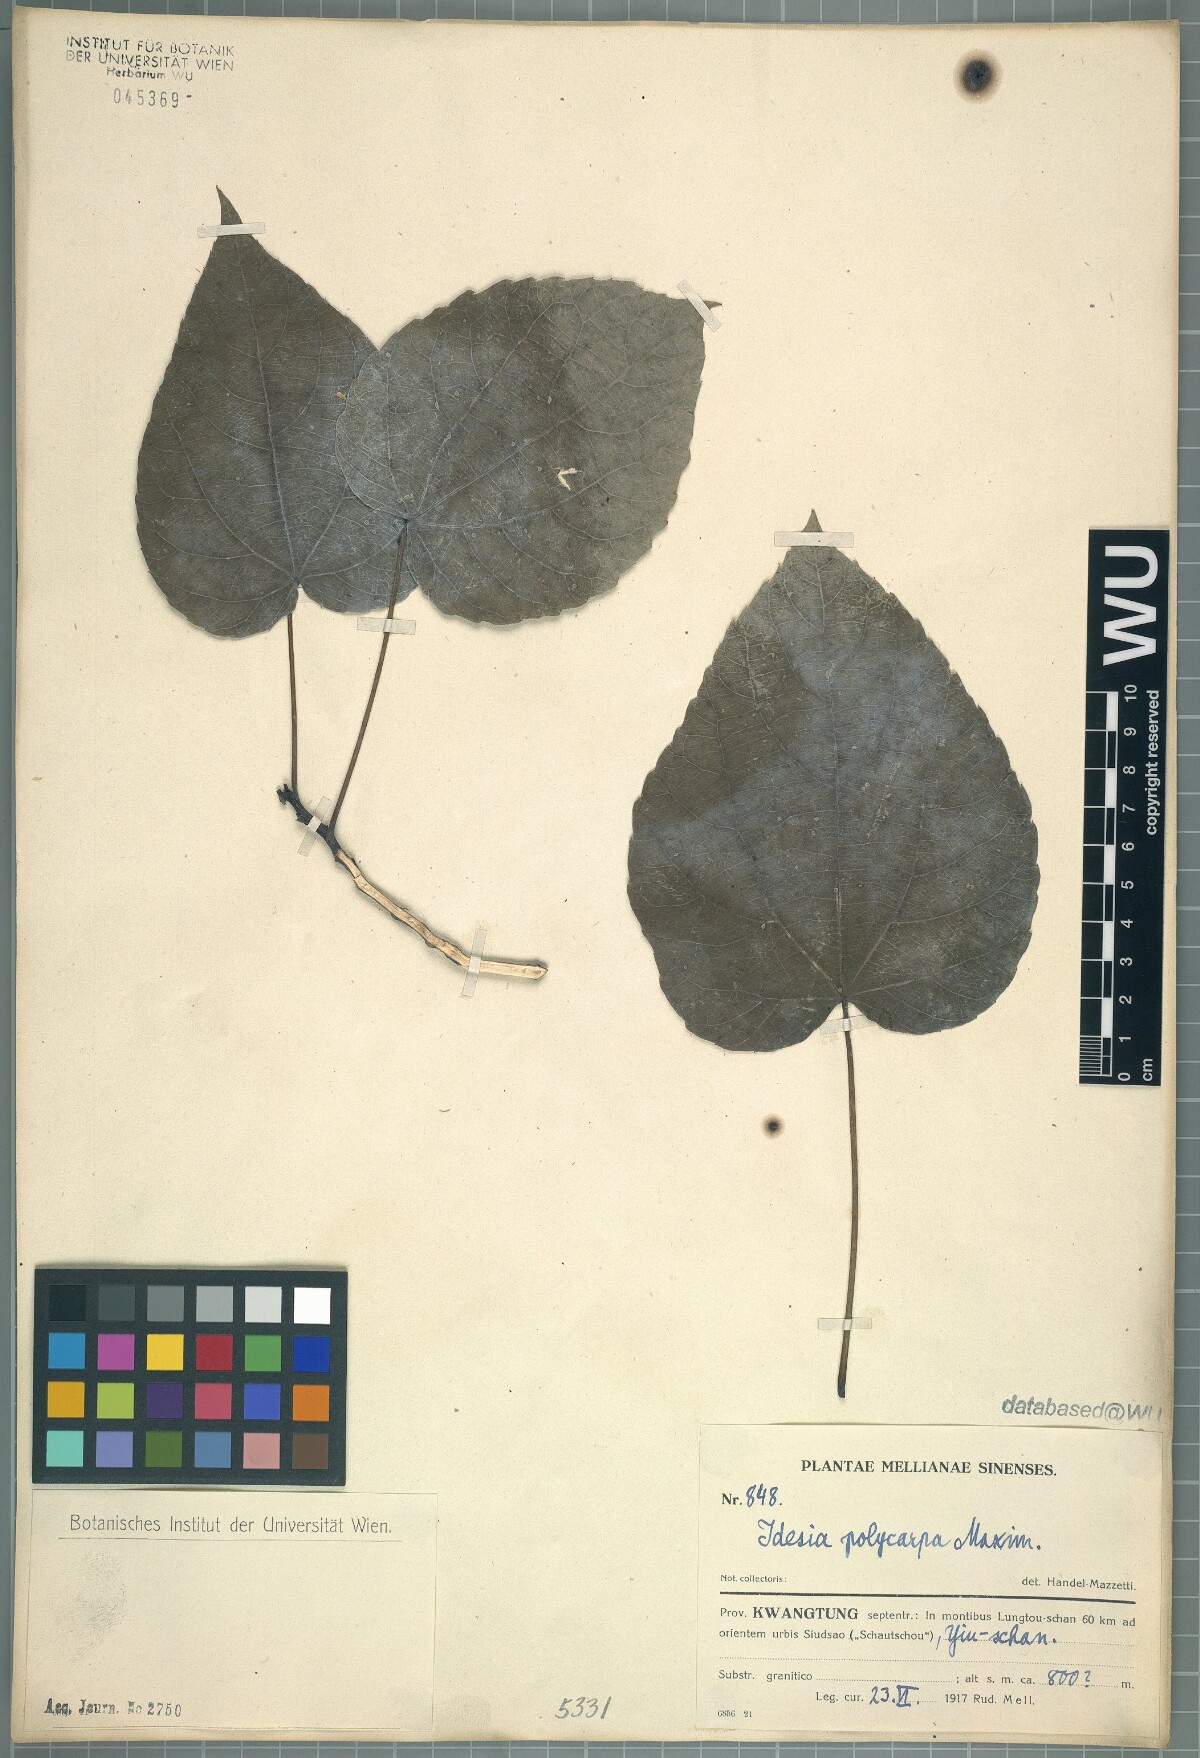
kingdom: Plantae
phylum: Tracheophyta
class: Magnoliopsida
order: Malpighiales
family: Salicaceae
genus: Idesia
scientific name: Idesia polycarpa
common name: Idesia tree
